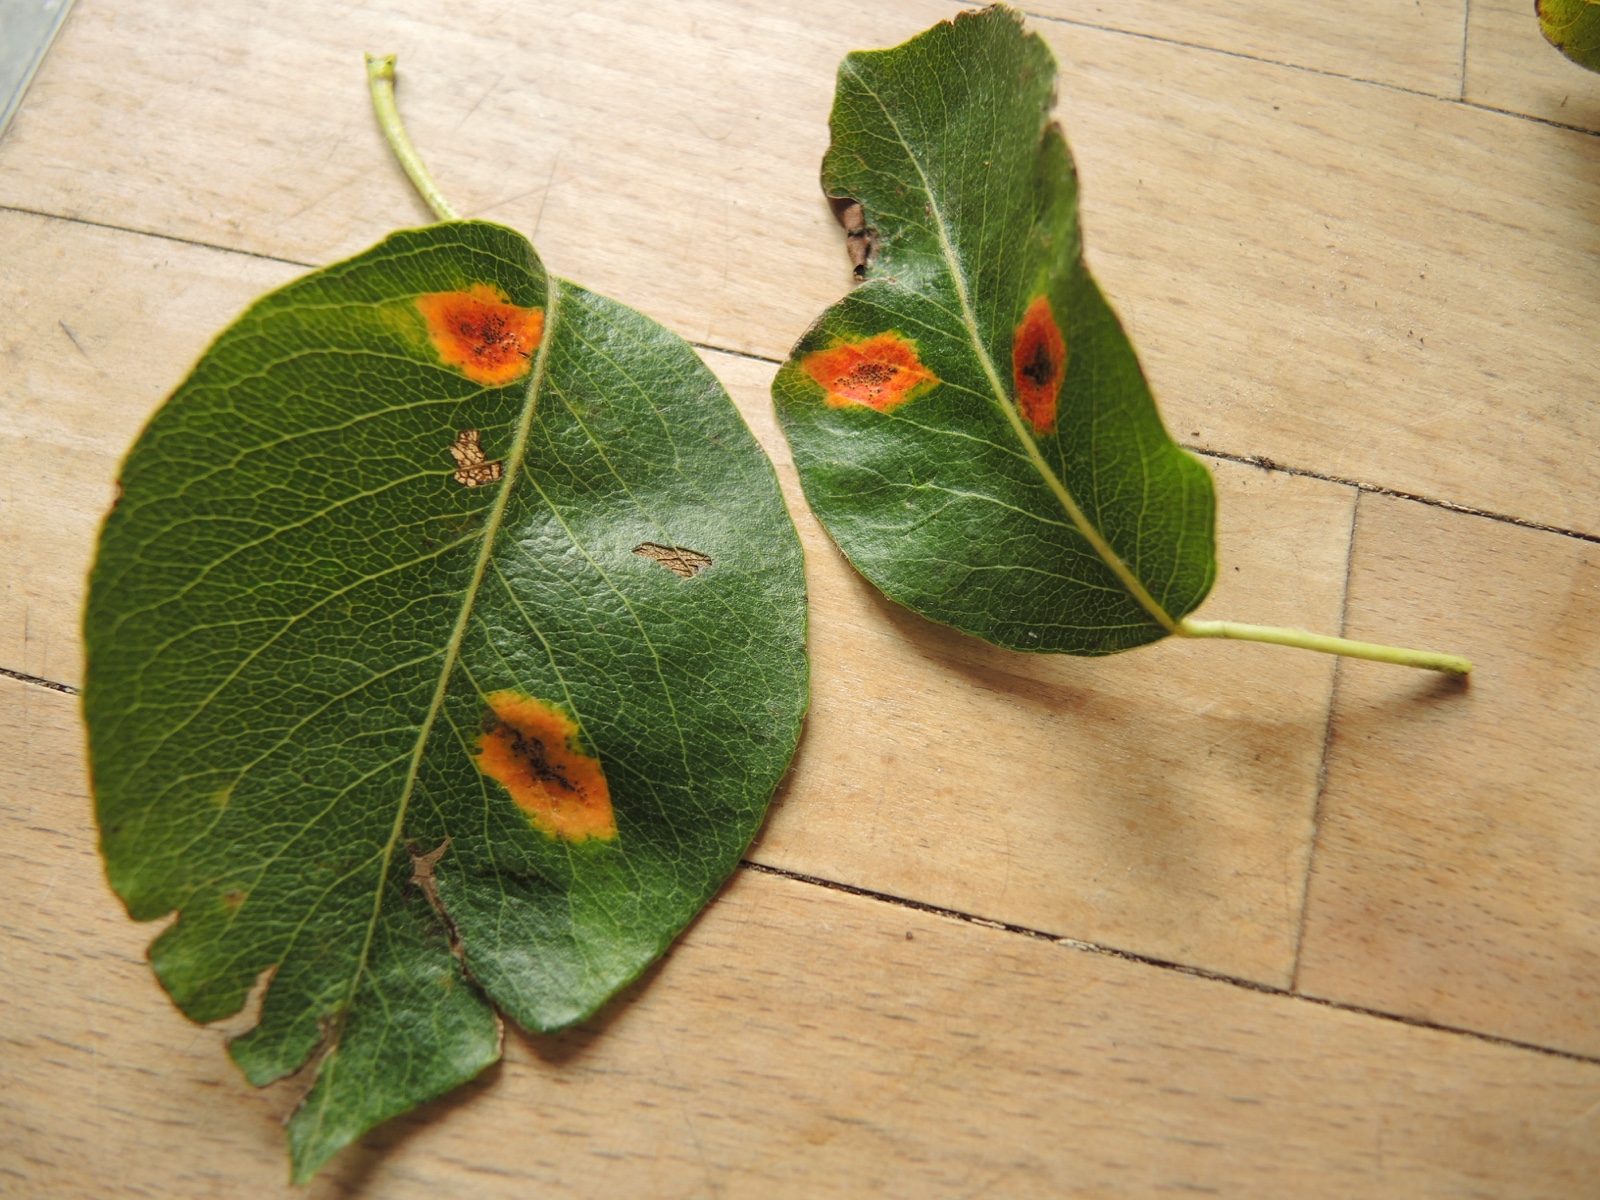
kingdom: Fungi
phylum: Basidiomycota
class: Pucciniomycetes
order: Pucciniales
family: Gymnosporangiaceae
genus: Gymnosporangium
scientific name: Gymnosporangium sabinae
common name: pæregitter-bævrerust
